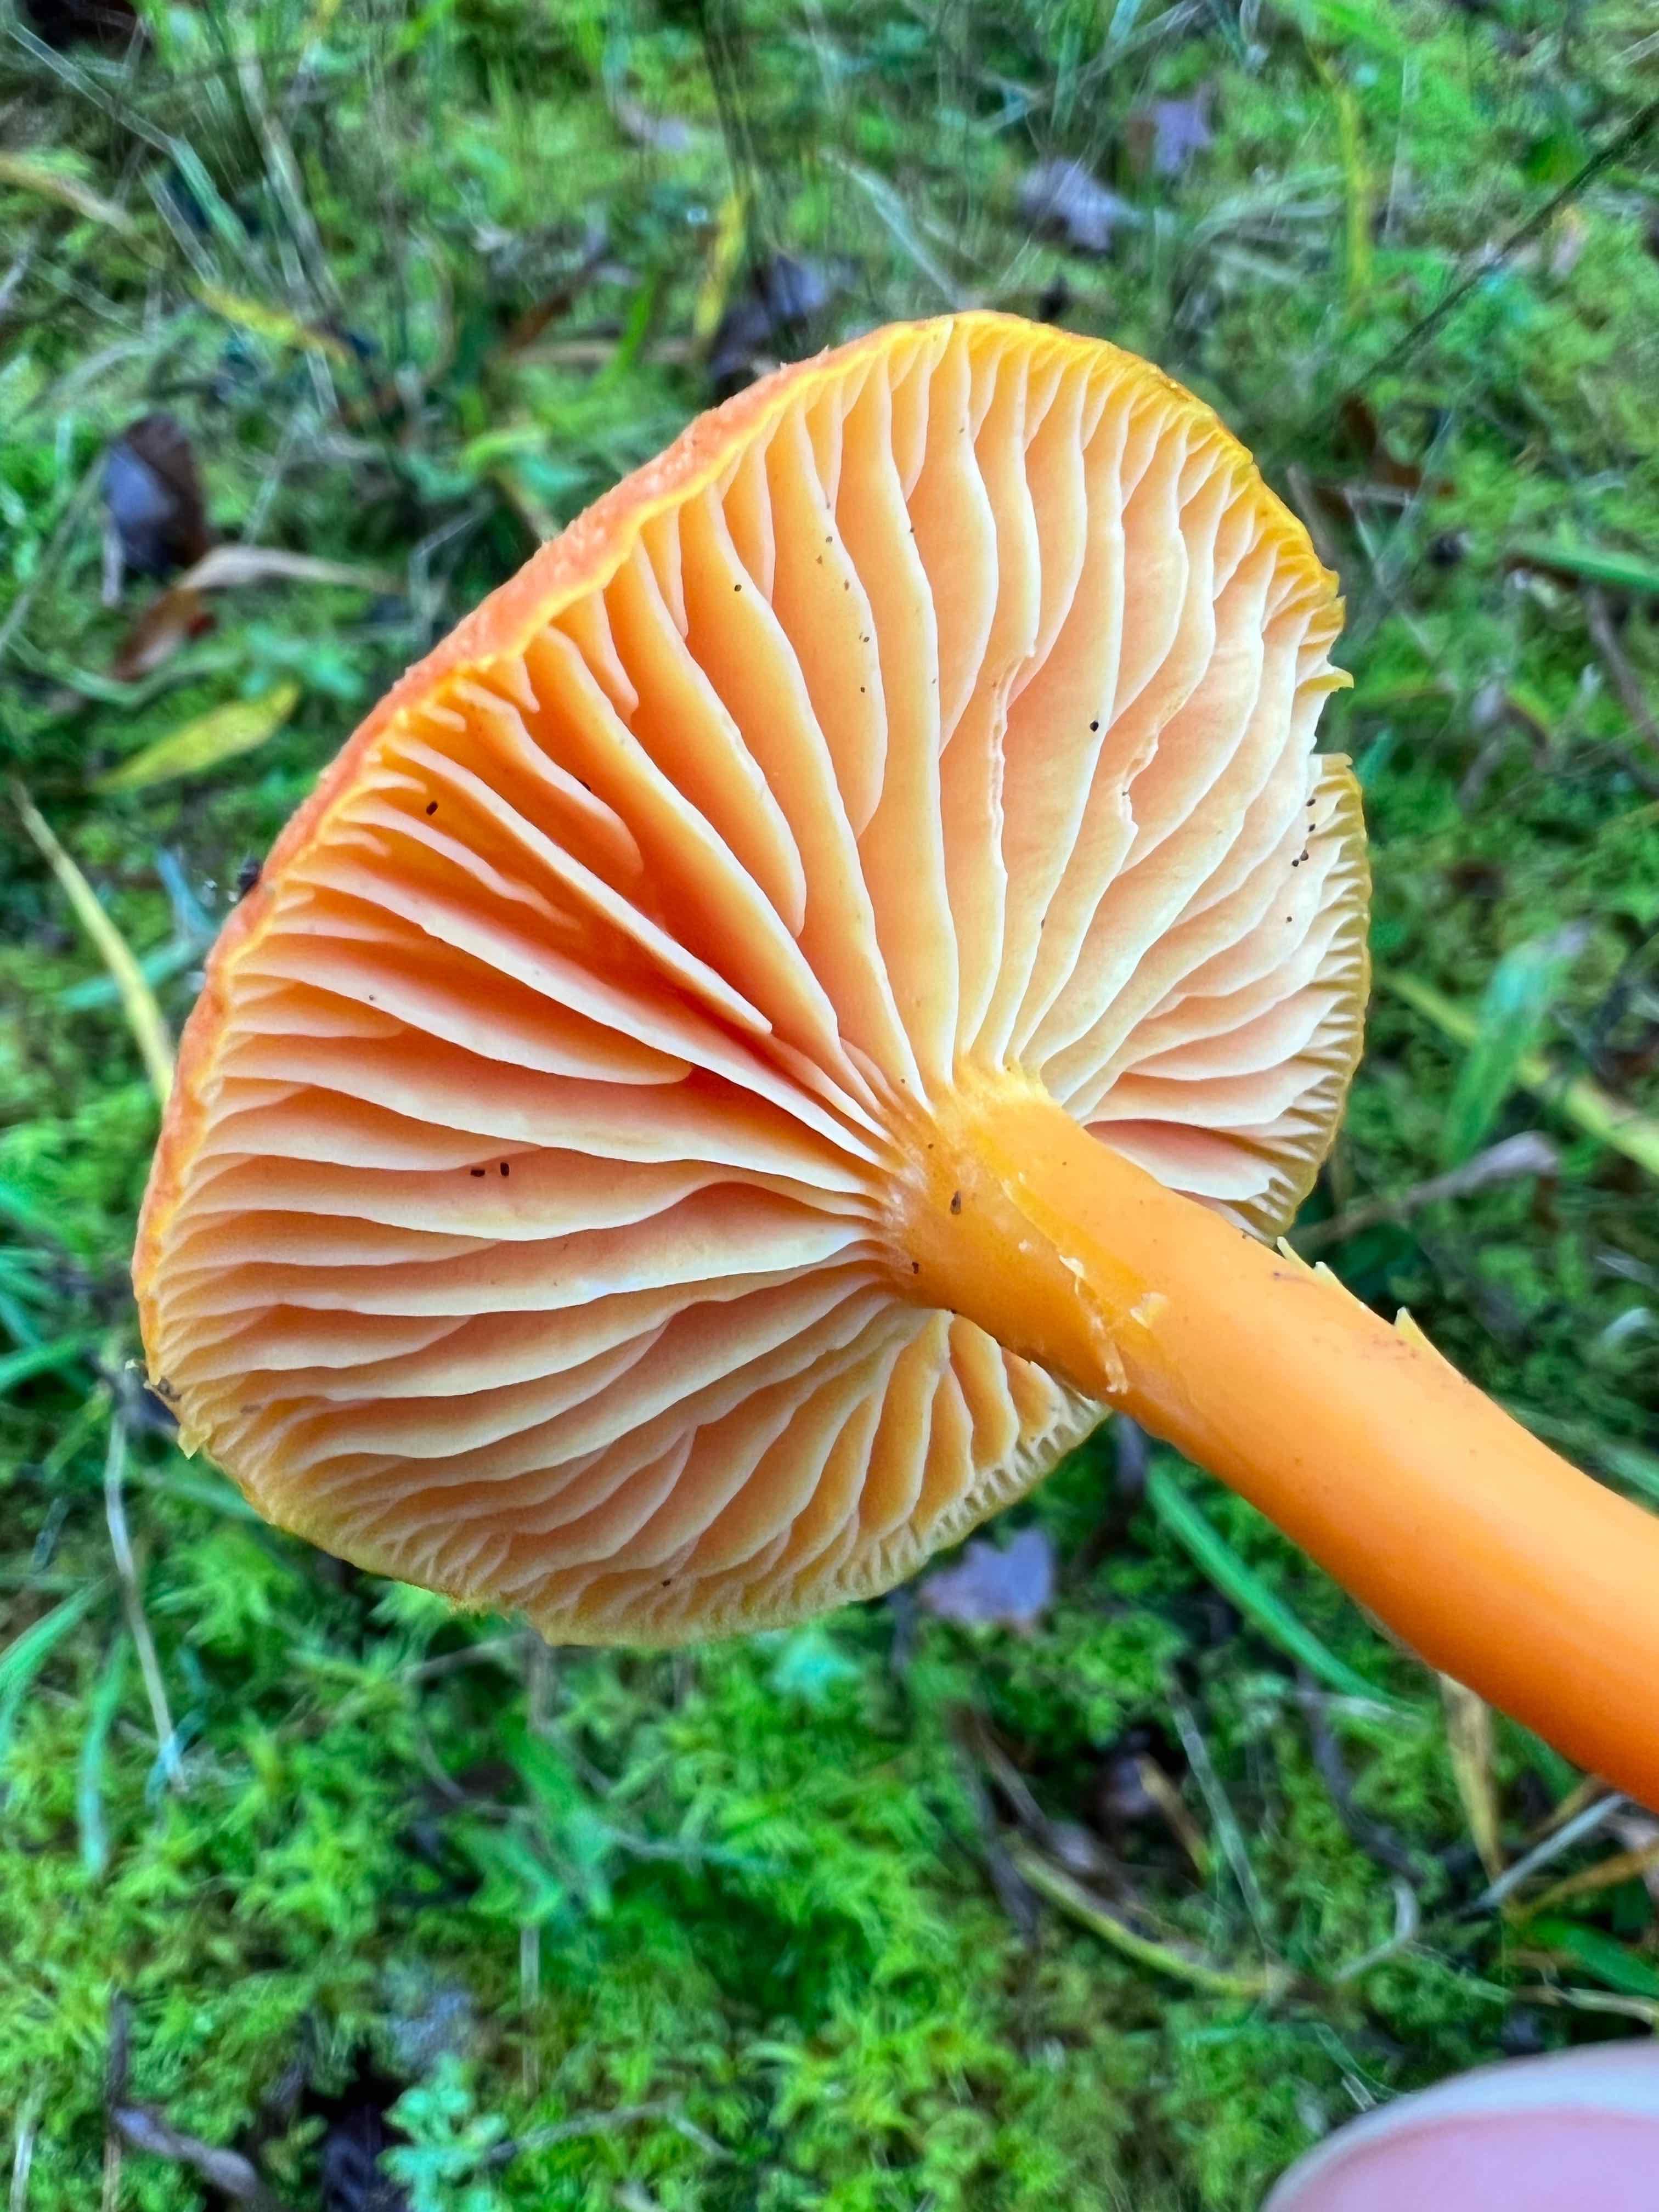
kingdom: Fungi
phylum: Basidiomycota
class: Agaricomycetes
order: Agaricales
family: Hygrophoraceae
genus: Hygrocybe
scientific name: Hygrocybe miniata
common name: mønje-vokshat
